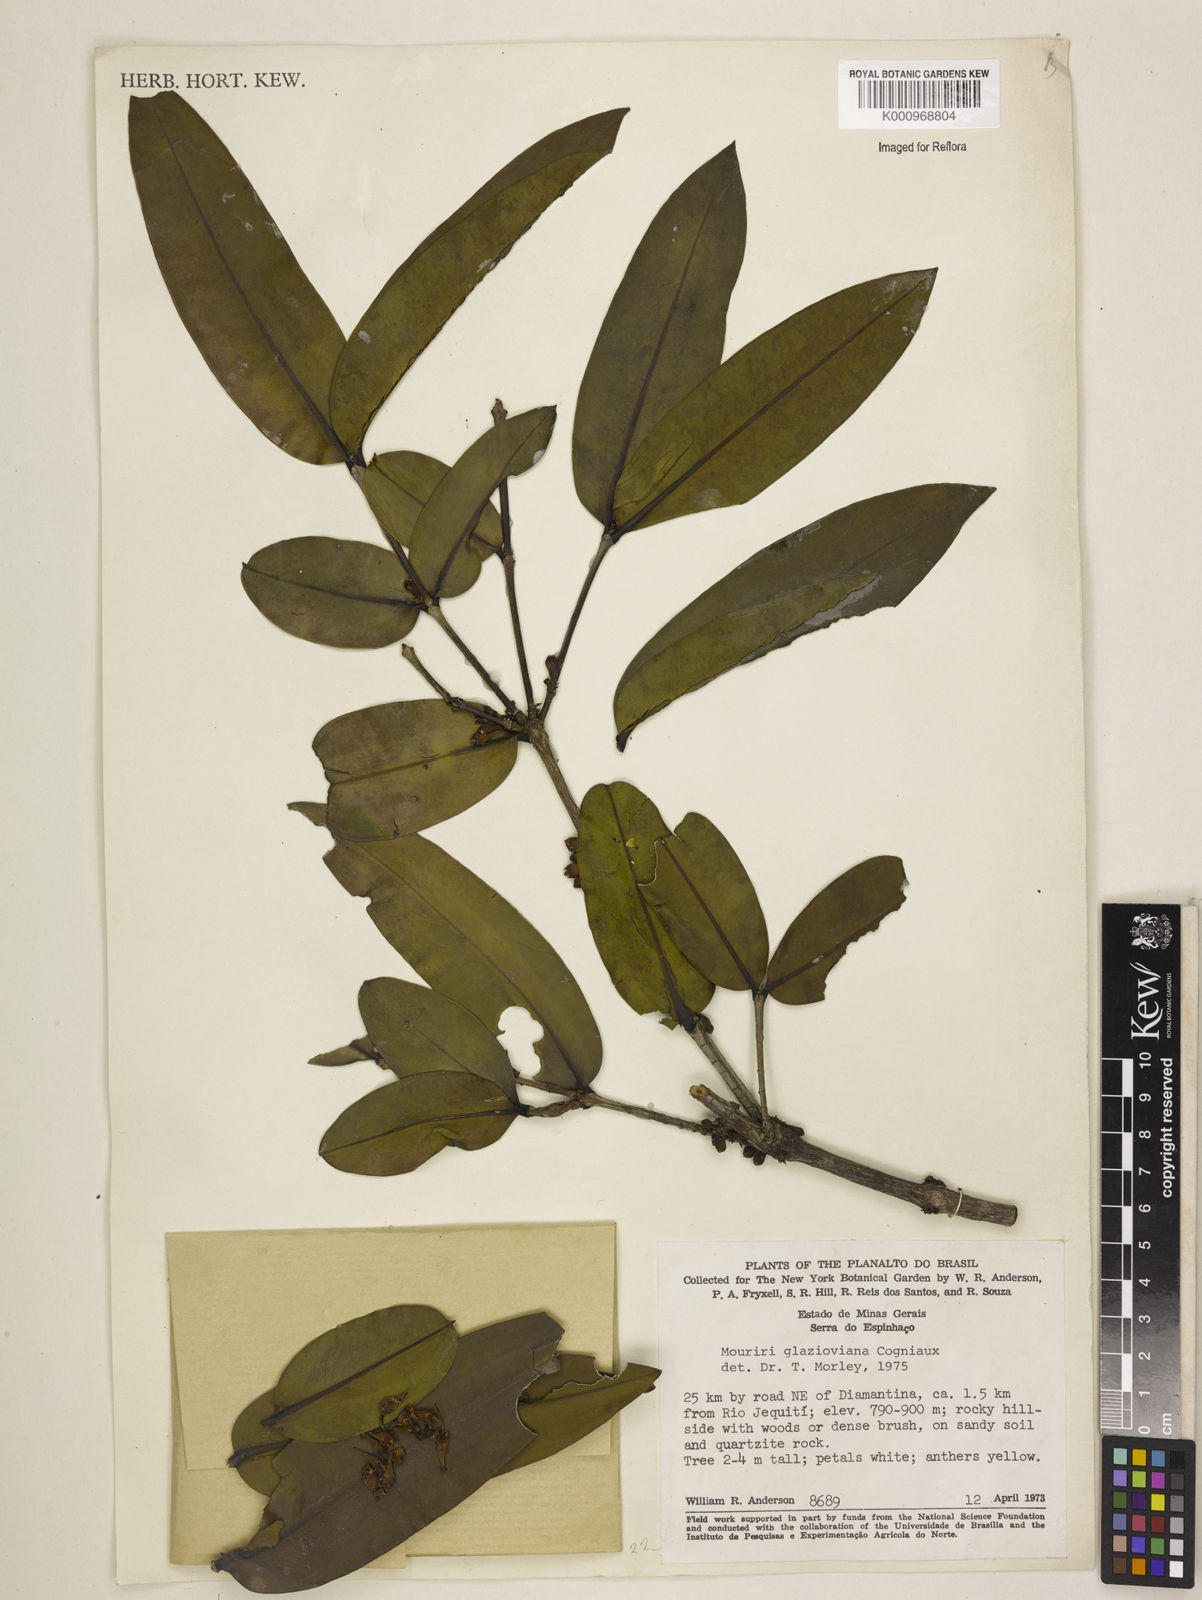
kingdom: Plantae
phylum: Tracheophyta
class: Magnoliopsida
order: Myrtales
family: Melastomataceae
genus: Mouriri
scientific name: Mouriri glazioviana
